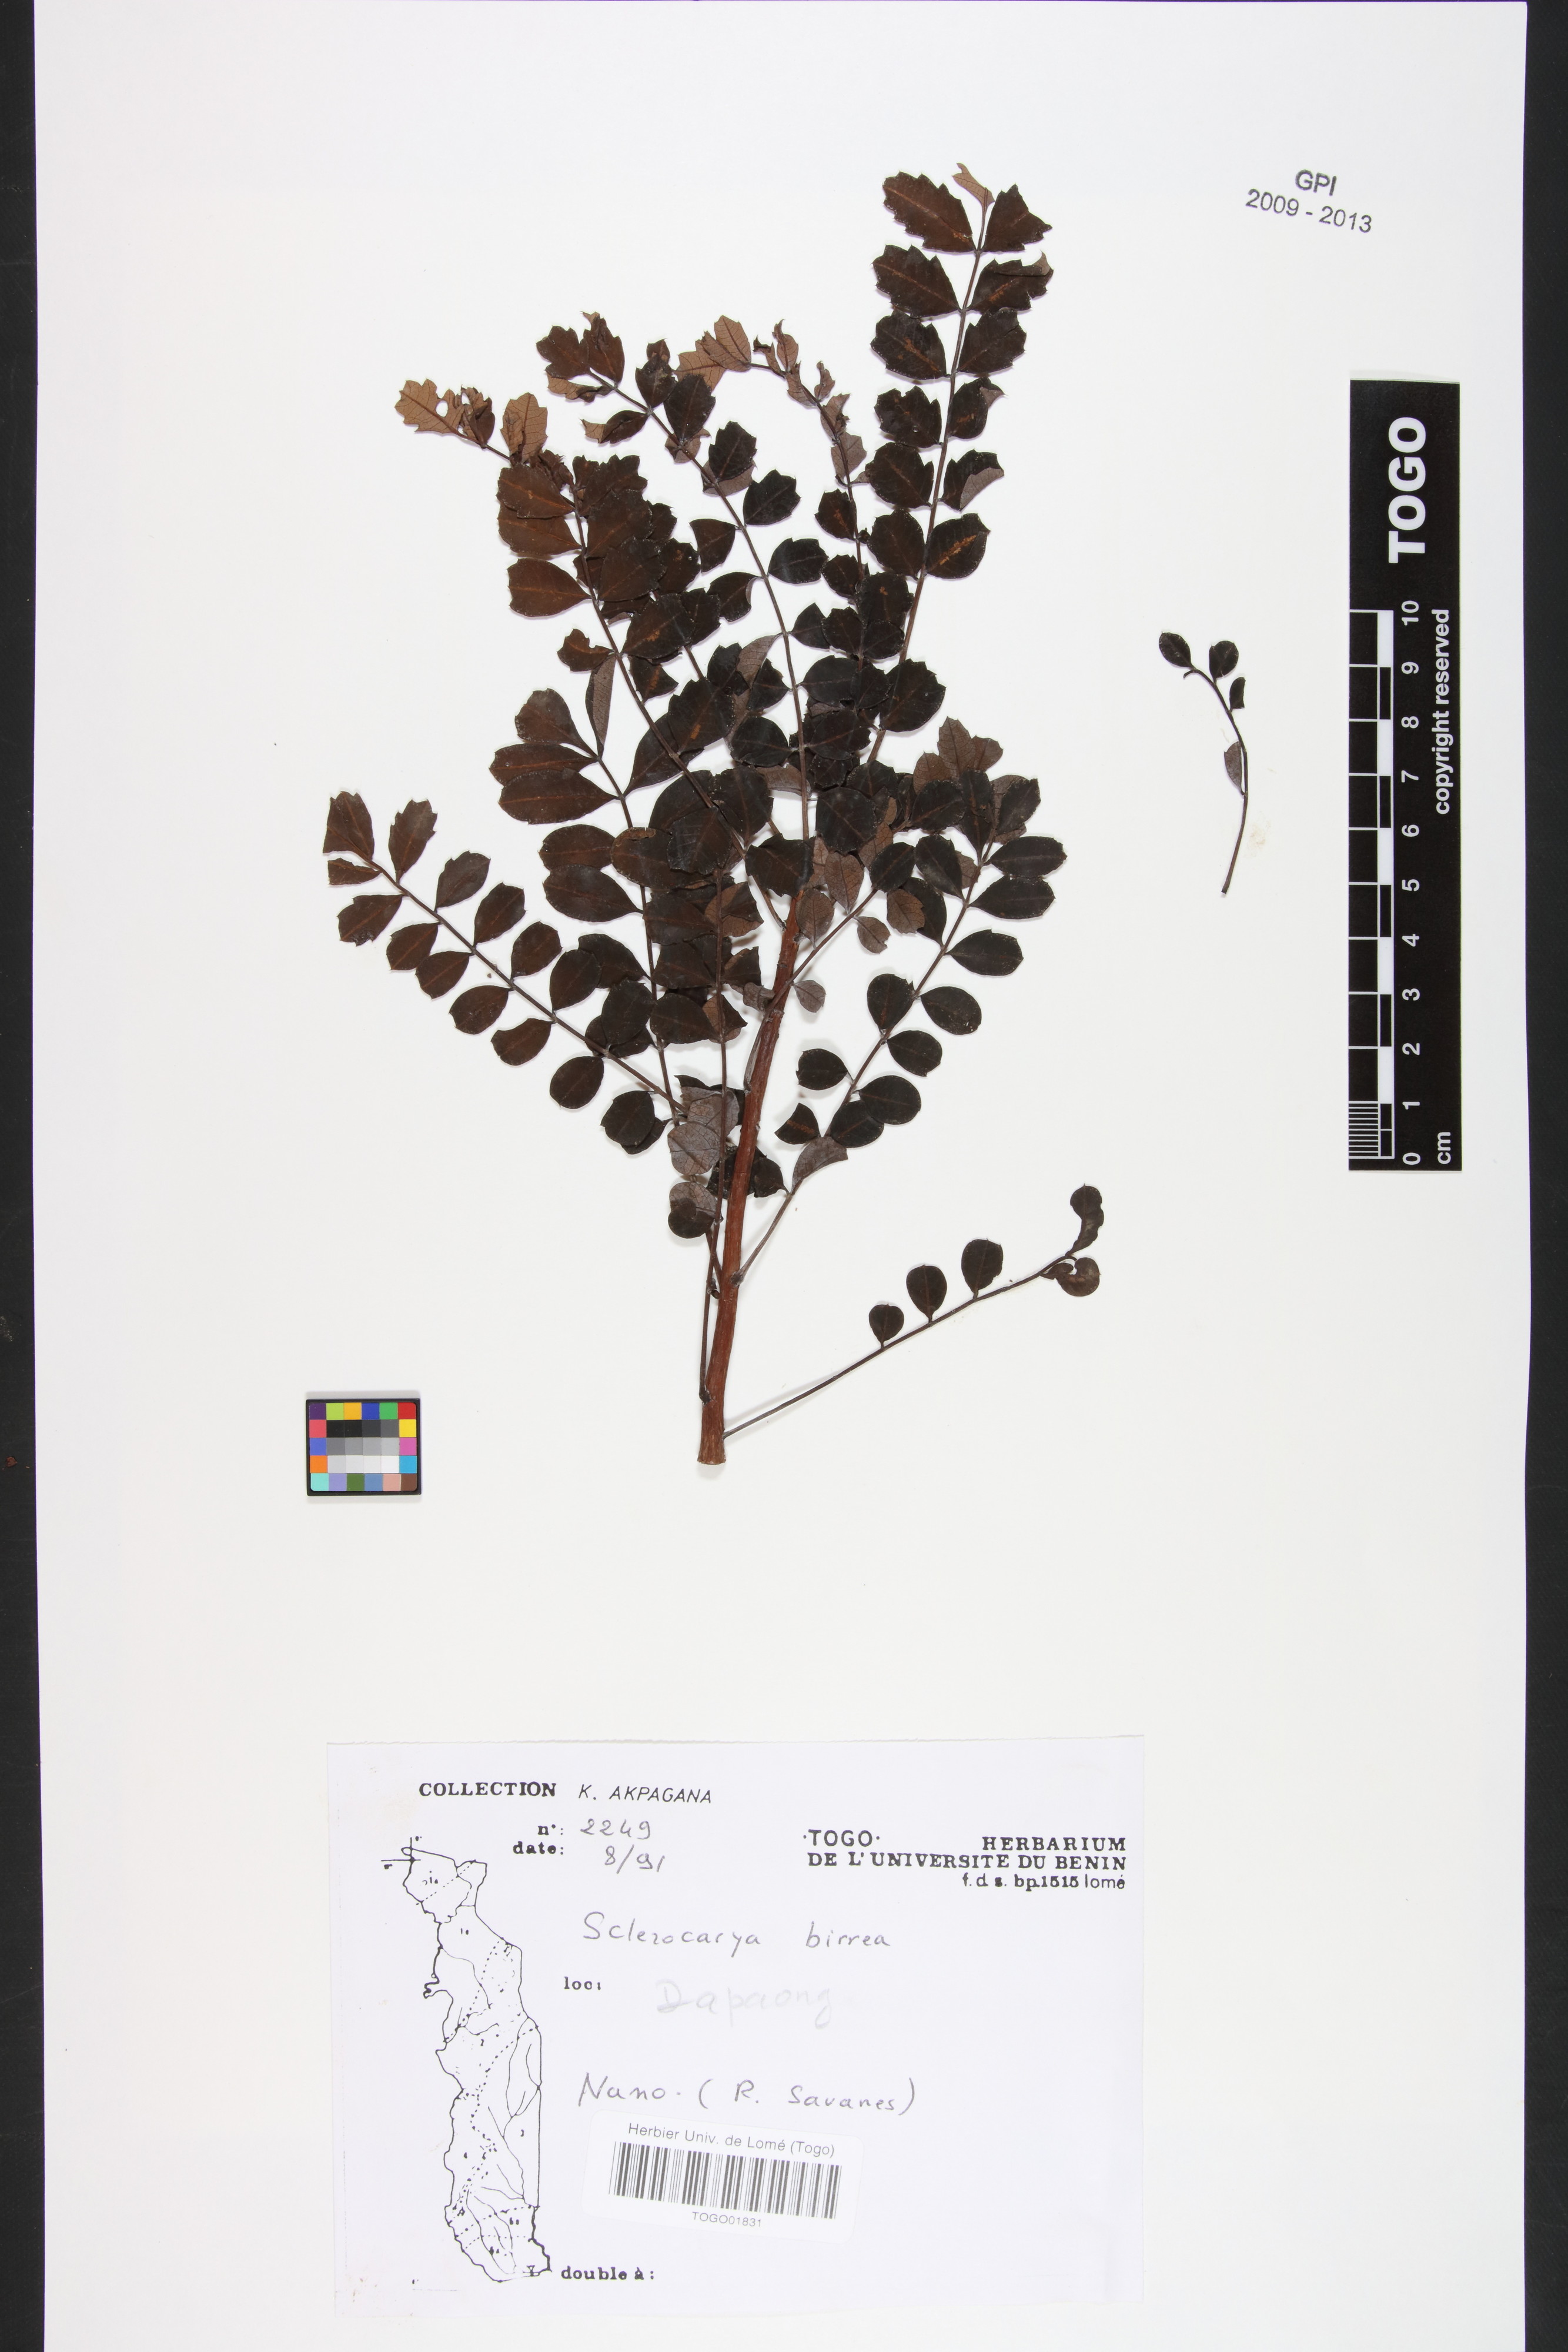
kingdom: Plantae
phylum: Tracheophyta
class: Magnoliopsida
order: Sapindales
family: Anacardiaceae
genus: Sclerocarya
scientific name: Sclerocarya birrea
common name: Marula
